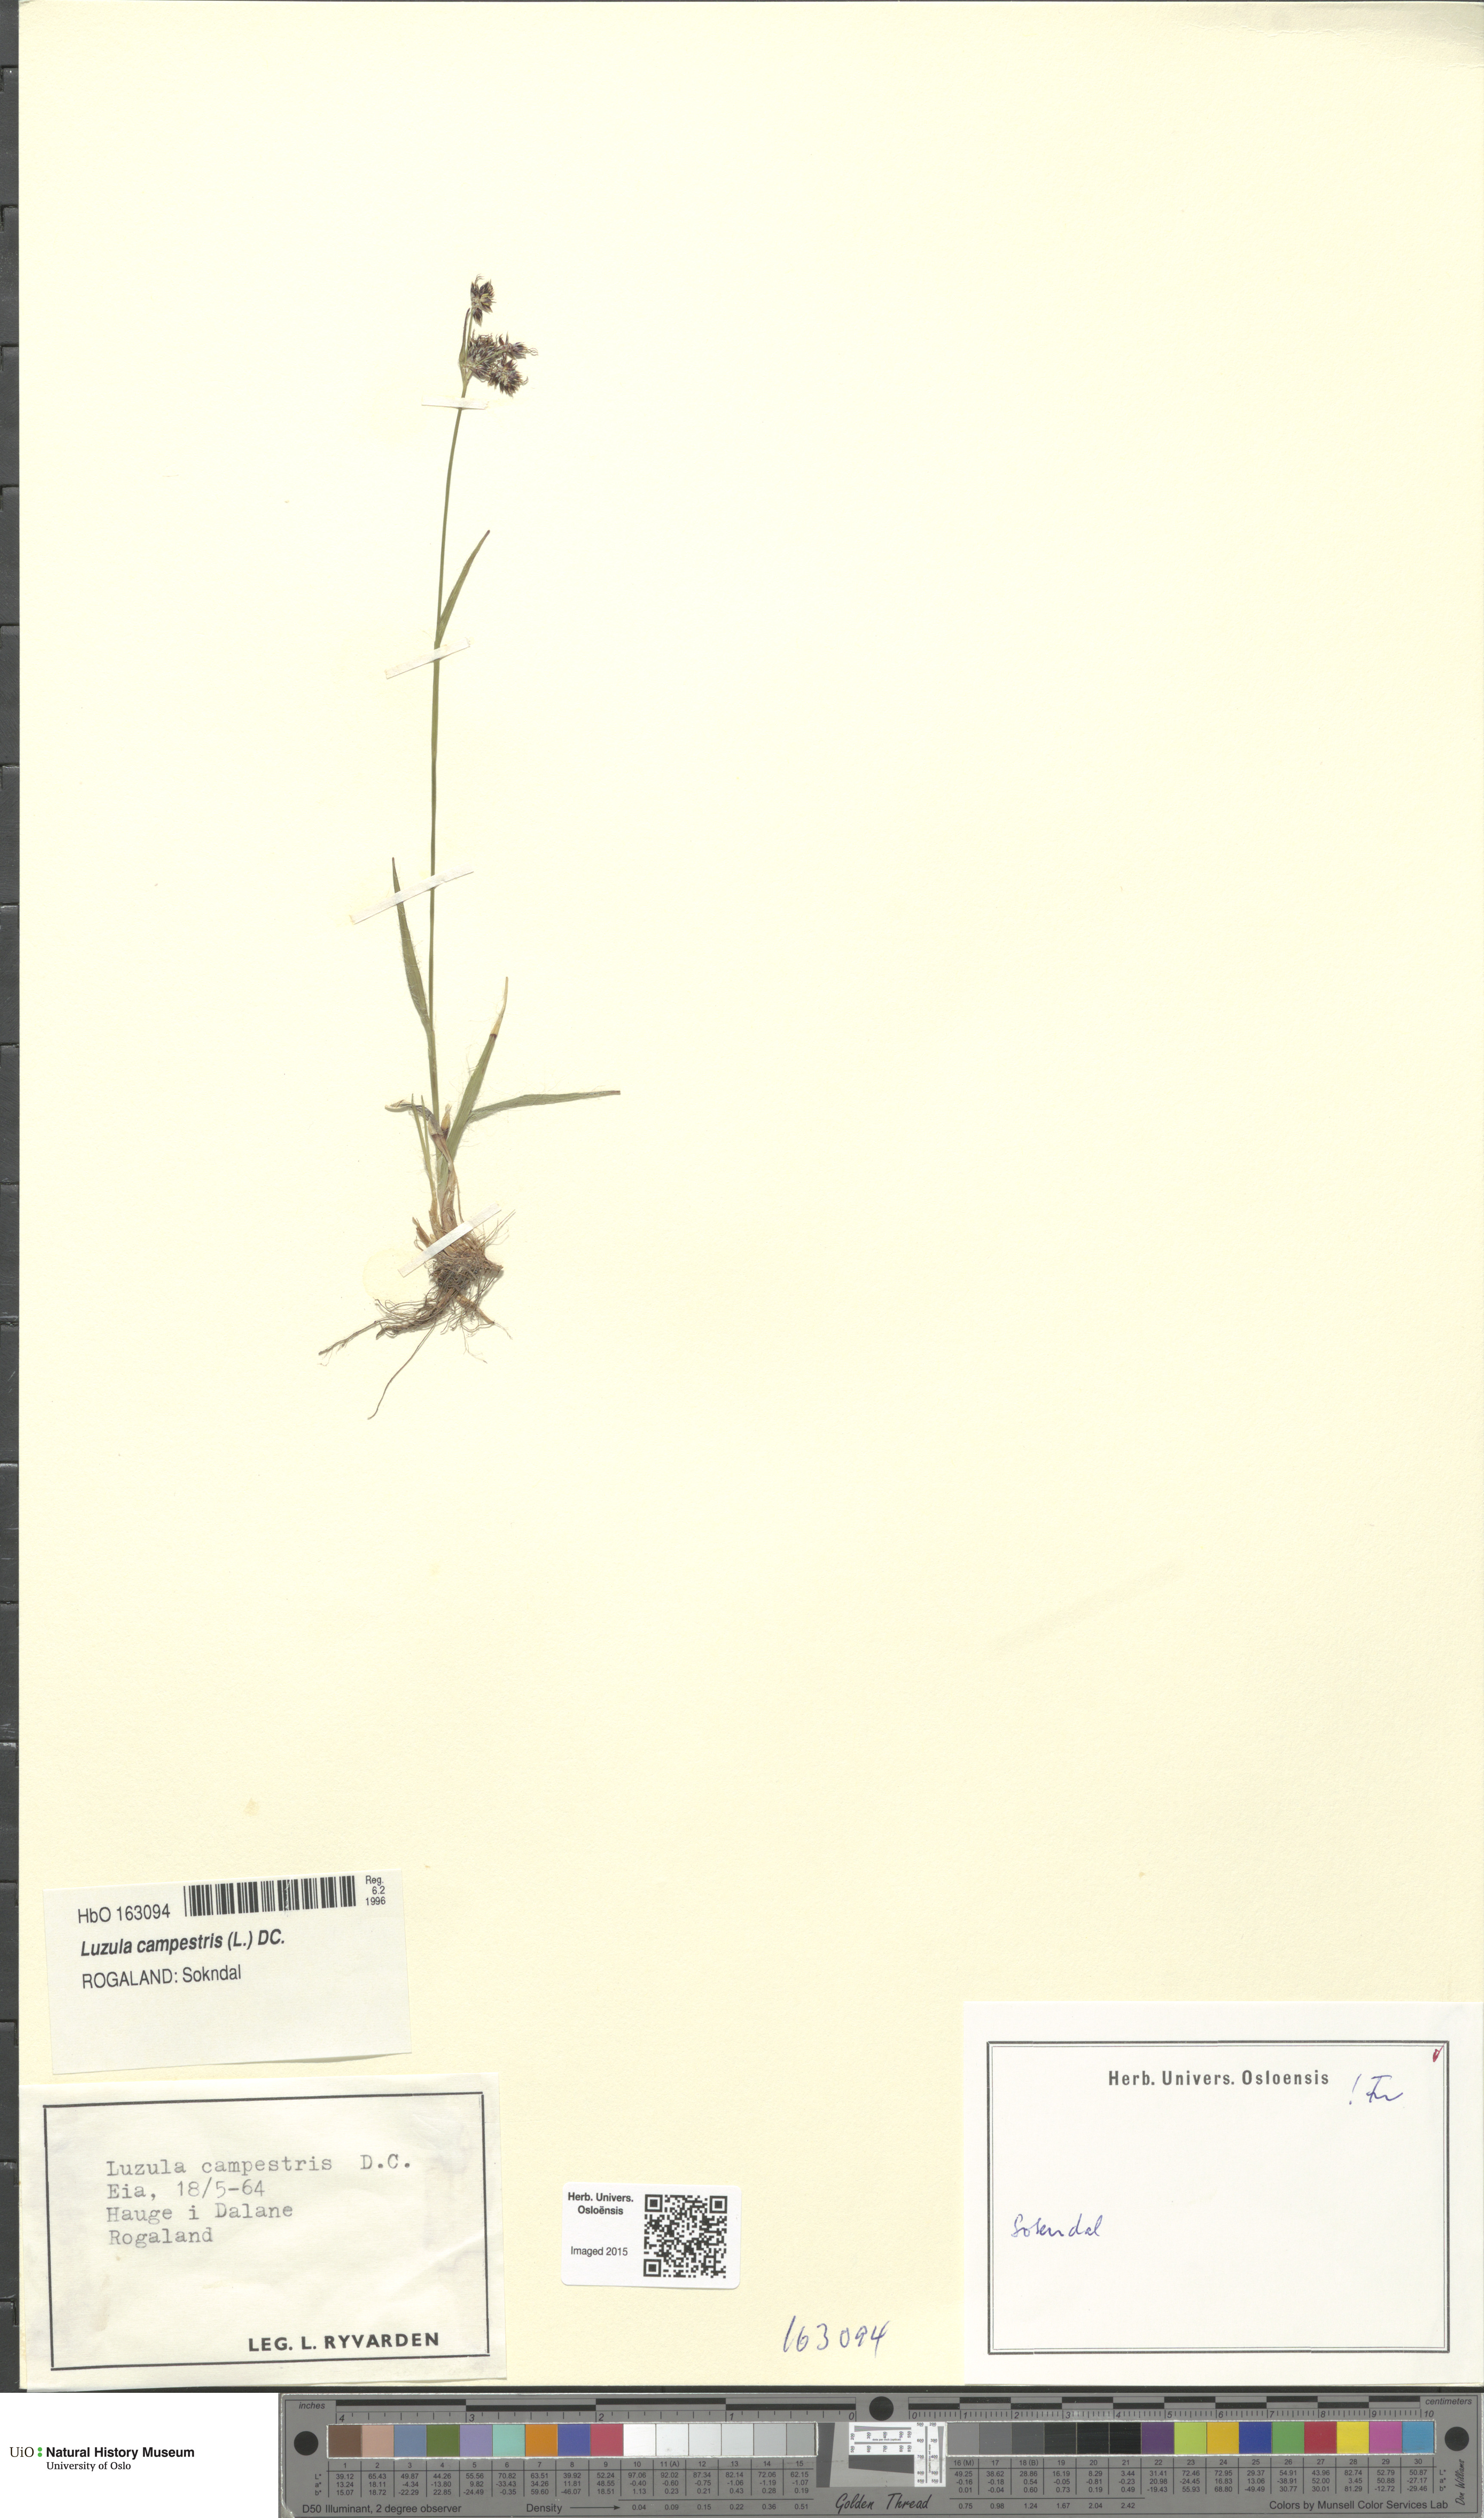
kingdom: Plantae
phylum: Tracheophyta
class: Liliopsida
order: Poales
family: Juncaceae
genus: Luzula
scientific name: Luzula campestris
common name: Field wood-rush
